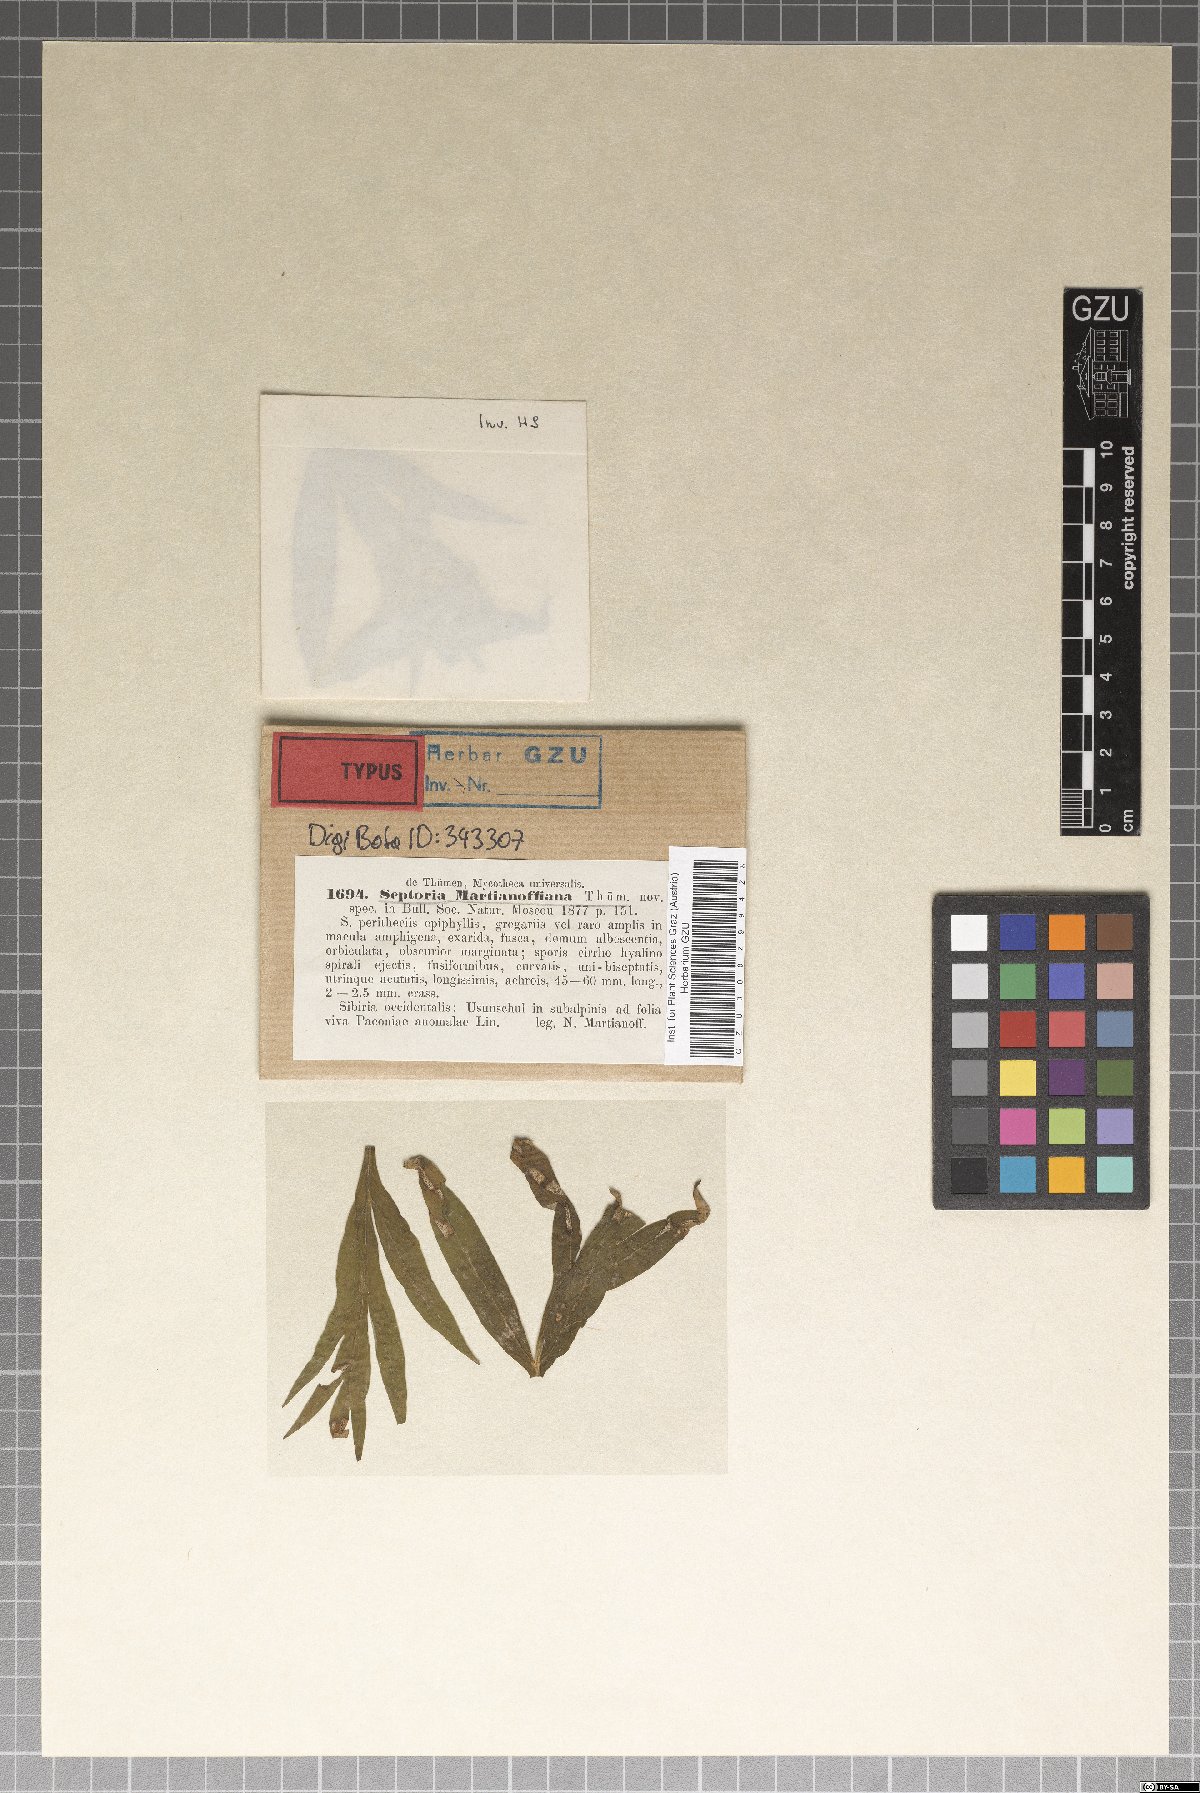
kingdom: Fungi
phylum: Ascomycota
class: Dothideomycetes
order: Mycosphaerellales
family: Mycosphaerellaceae
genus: Septoria
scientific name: Septoria
